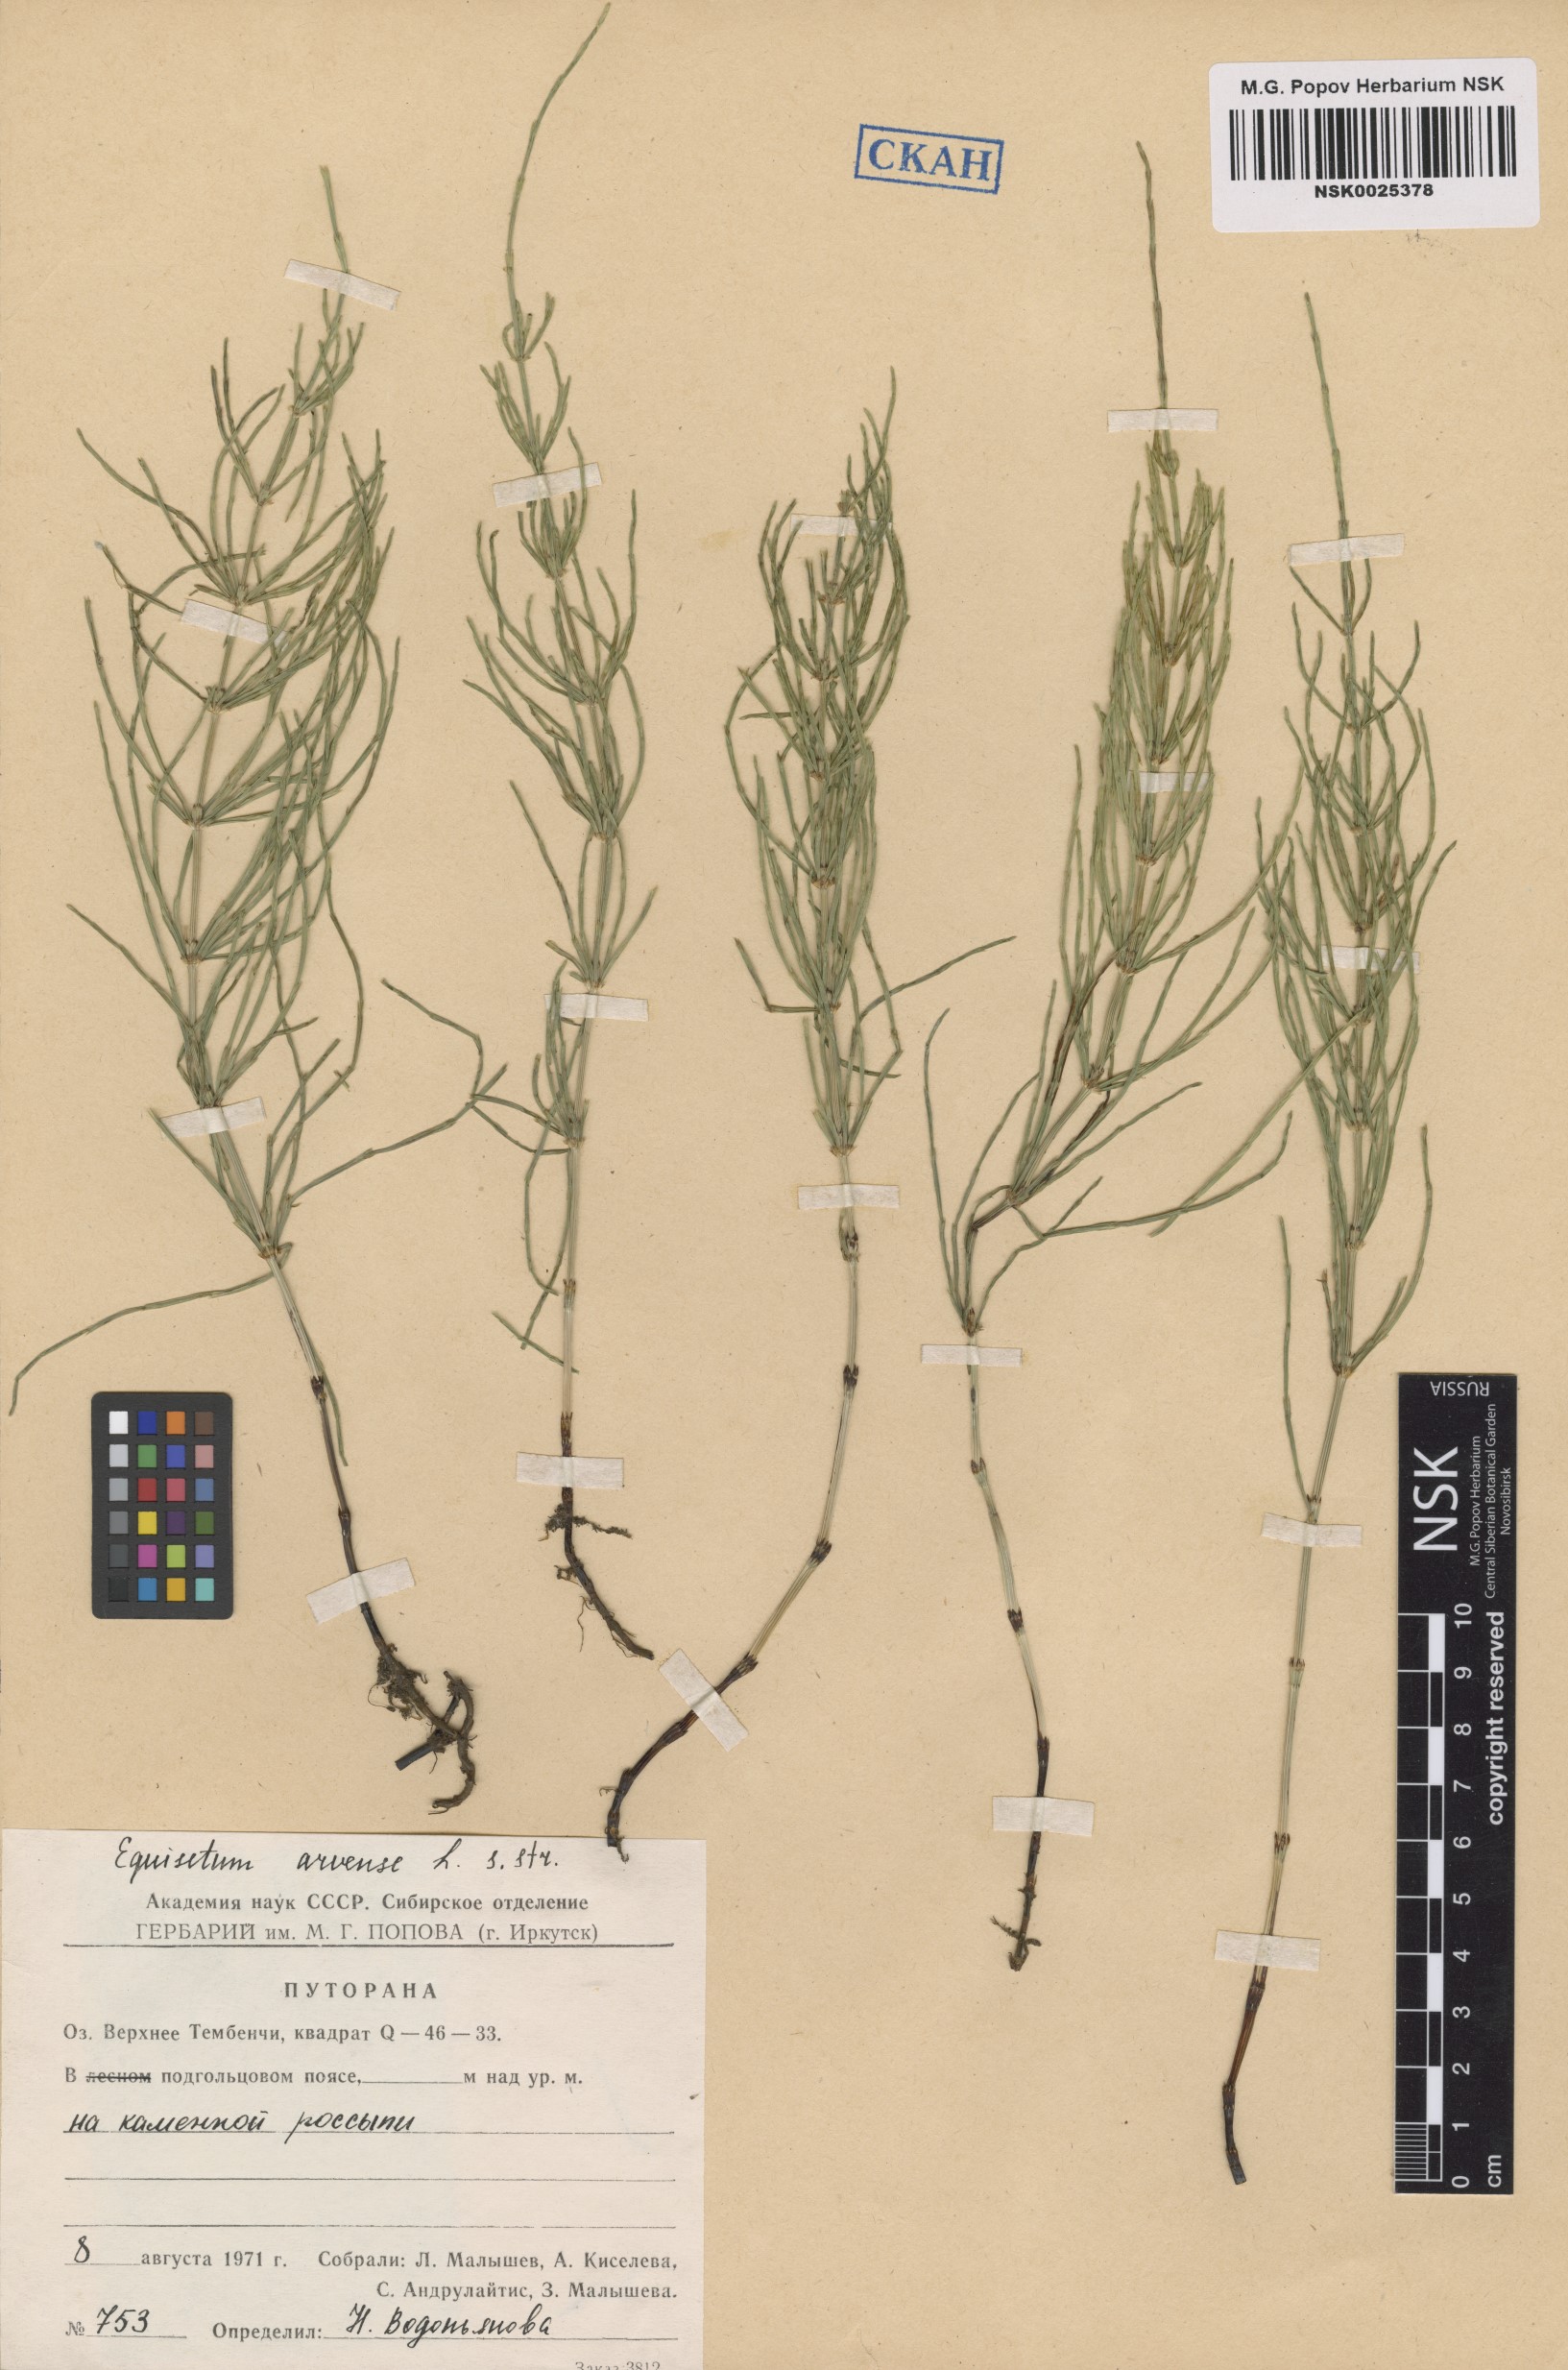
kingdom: Plantae
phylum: Tracheophyta
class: Polypodiopsida
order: Equisetales
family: Equisetaceae
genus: Equisetum
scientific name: Equisetum arvense
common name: Field horsetail
